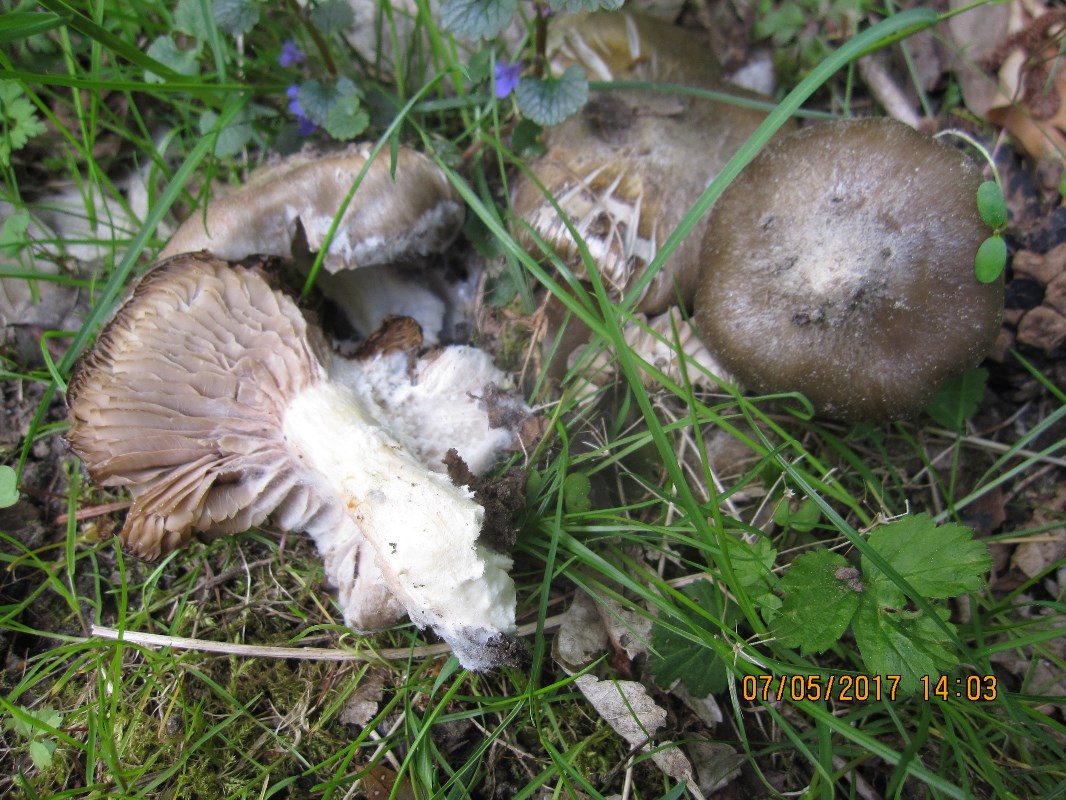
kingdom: Fungi
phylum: Basidiomycota
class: Agaricomycetes
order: Agaricales
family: Entolomataceae
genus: Entoloma
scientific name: Entoloma clypeatum
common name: flammet rødblad
